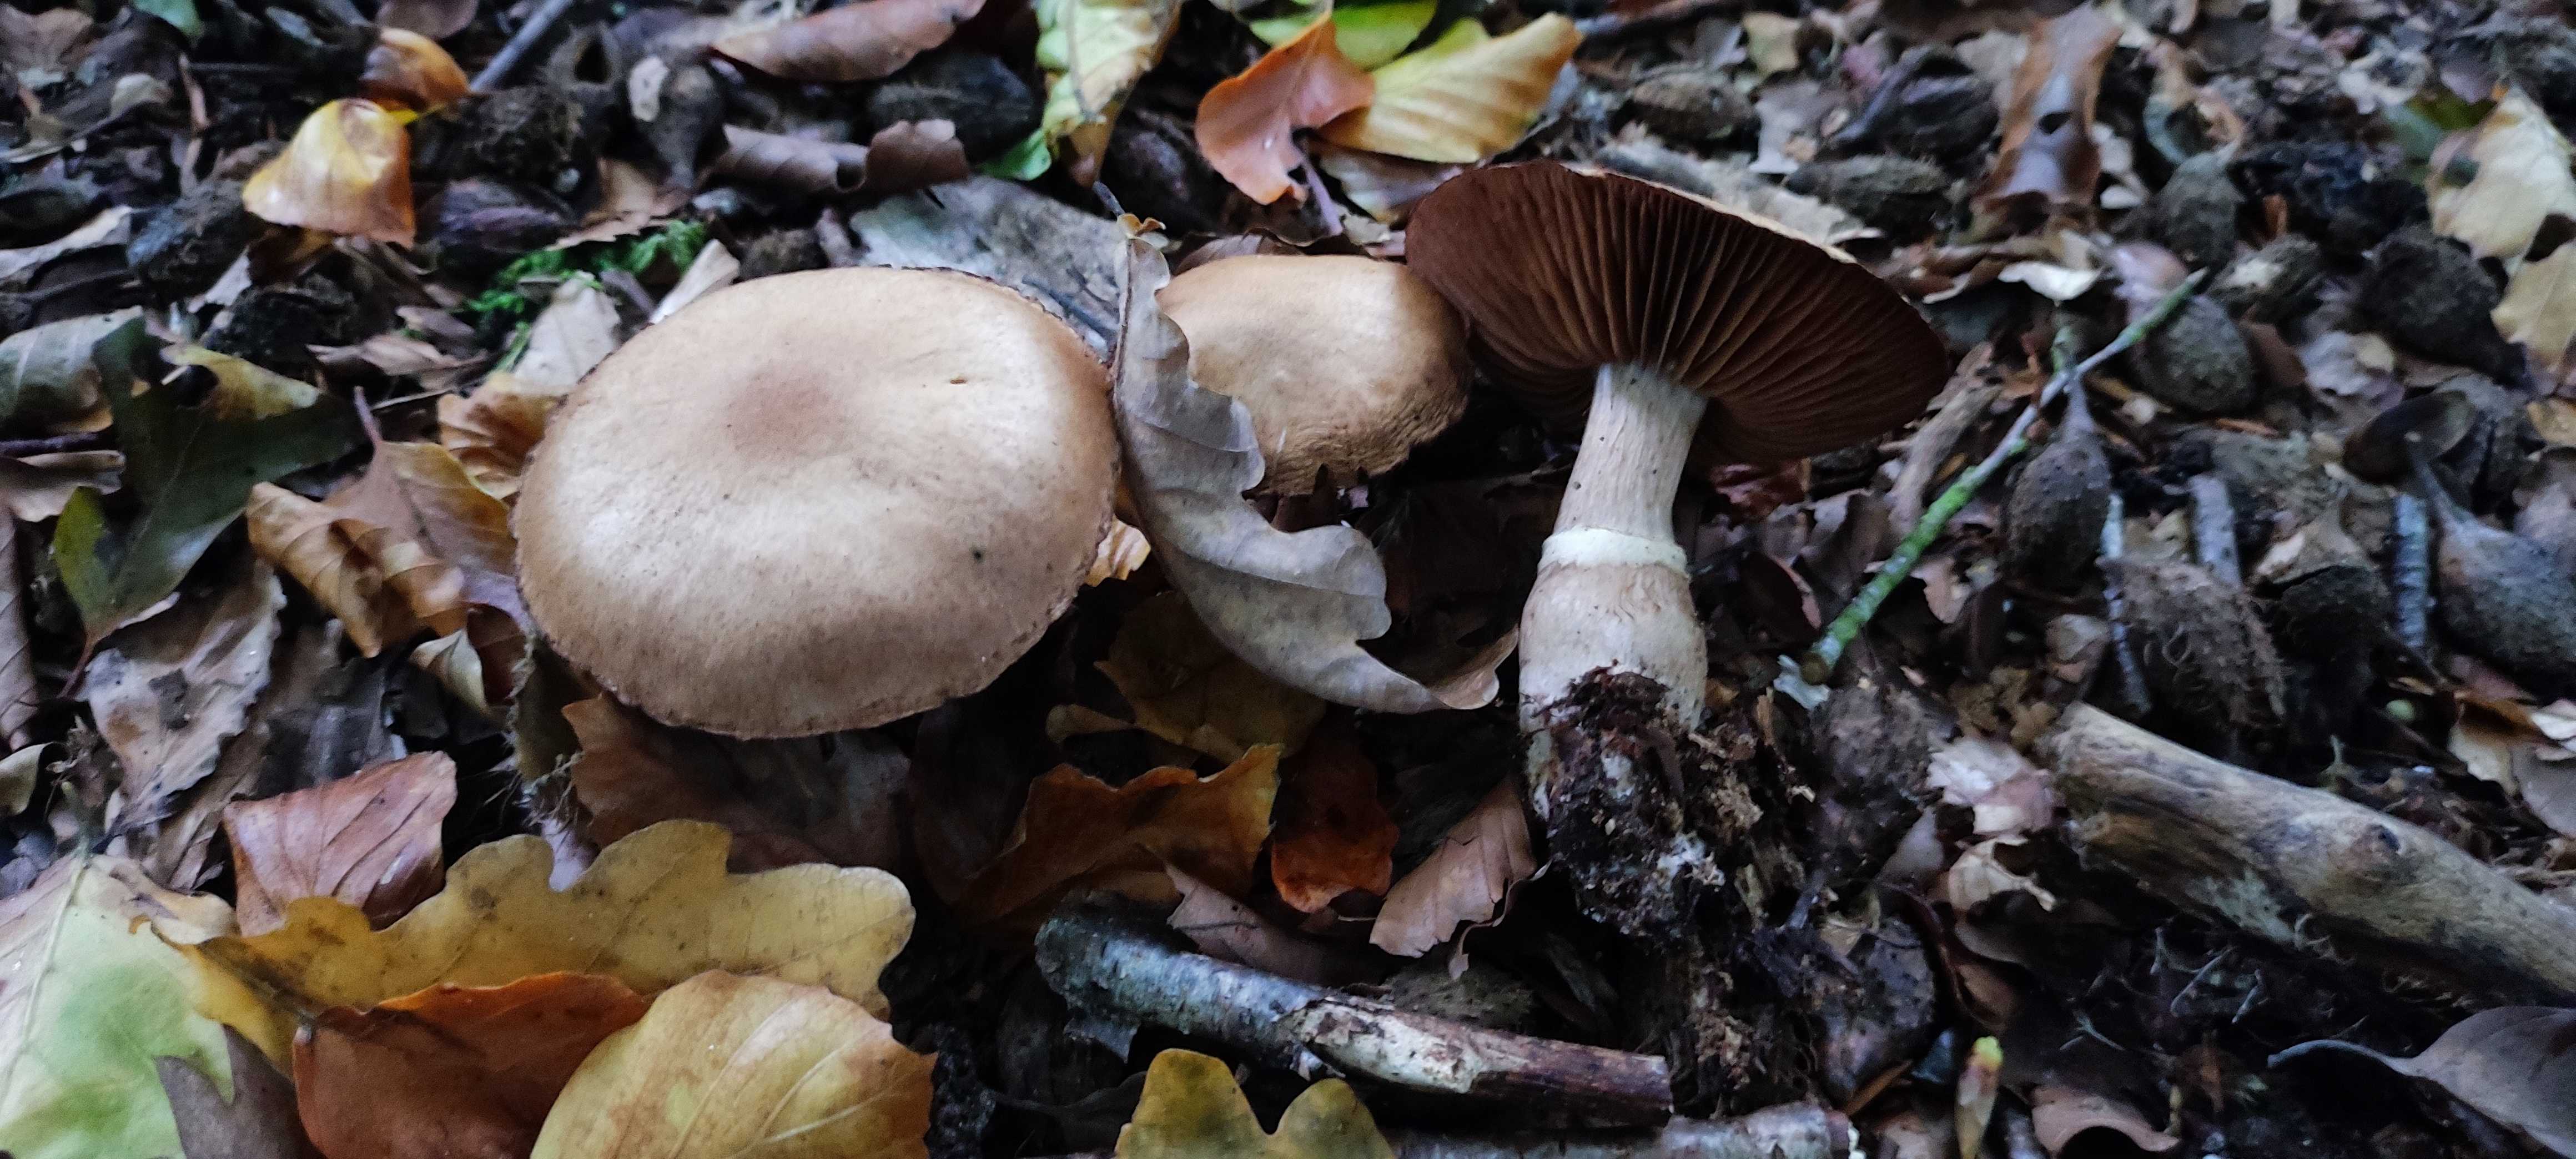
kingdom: Fungi
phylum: Basidiomycota
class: Agaricomycetes
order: Agaricales
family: Cortinariaceae
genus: Cortinarius
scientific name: Cortinarius torvus
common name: champignonagtig slørhat
